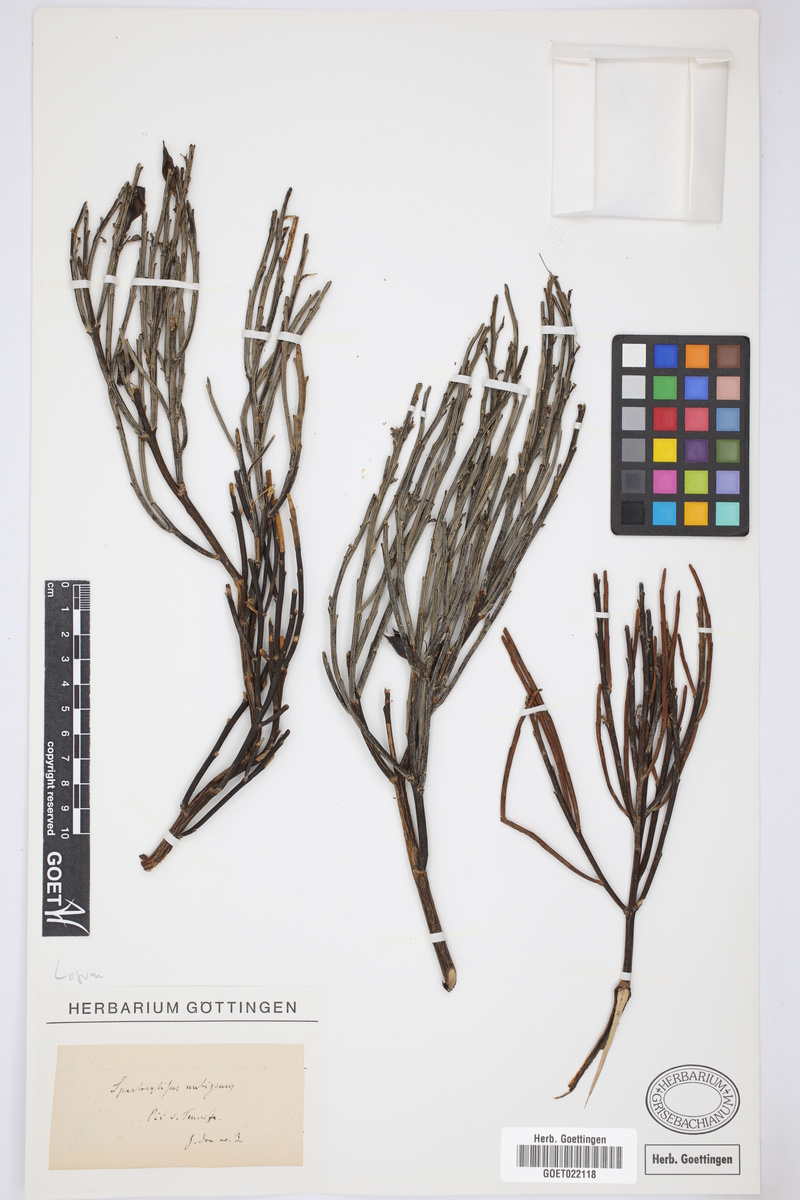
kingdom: Plantae
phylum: Tracheophyta
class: Magnoliopsida
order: Fabales
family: Fabaceae
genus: Cytisus
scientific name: Cytisus supranubius
